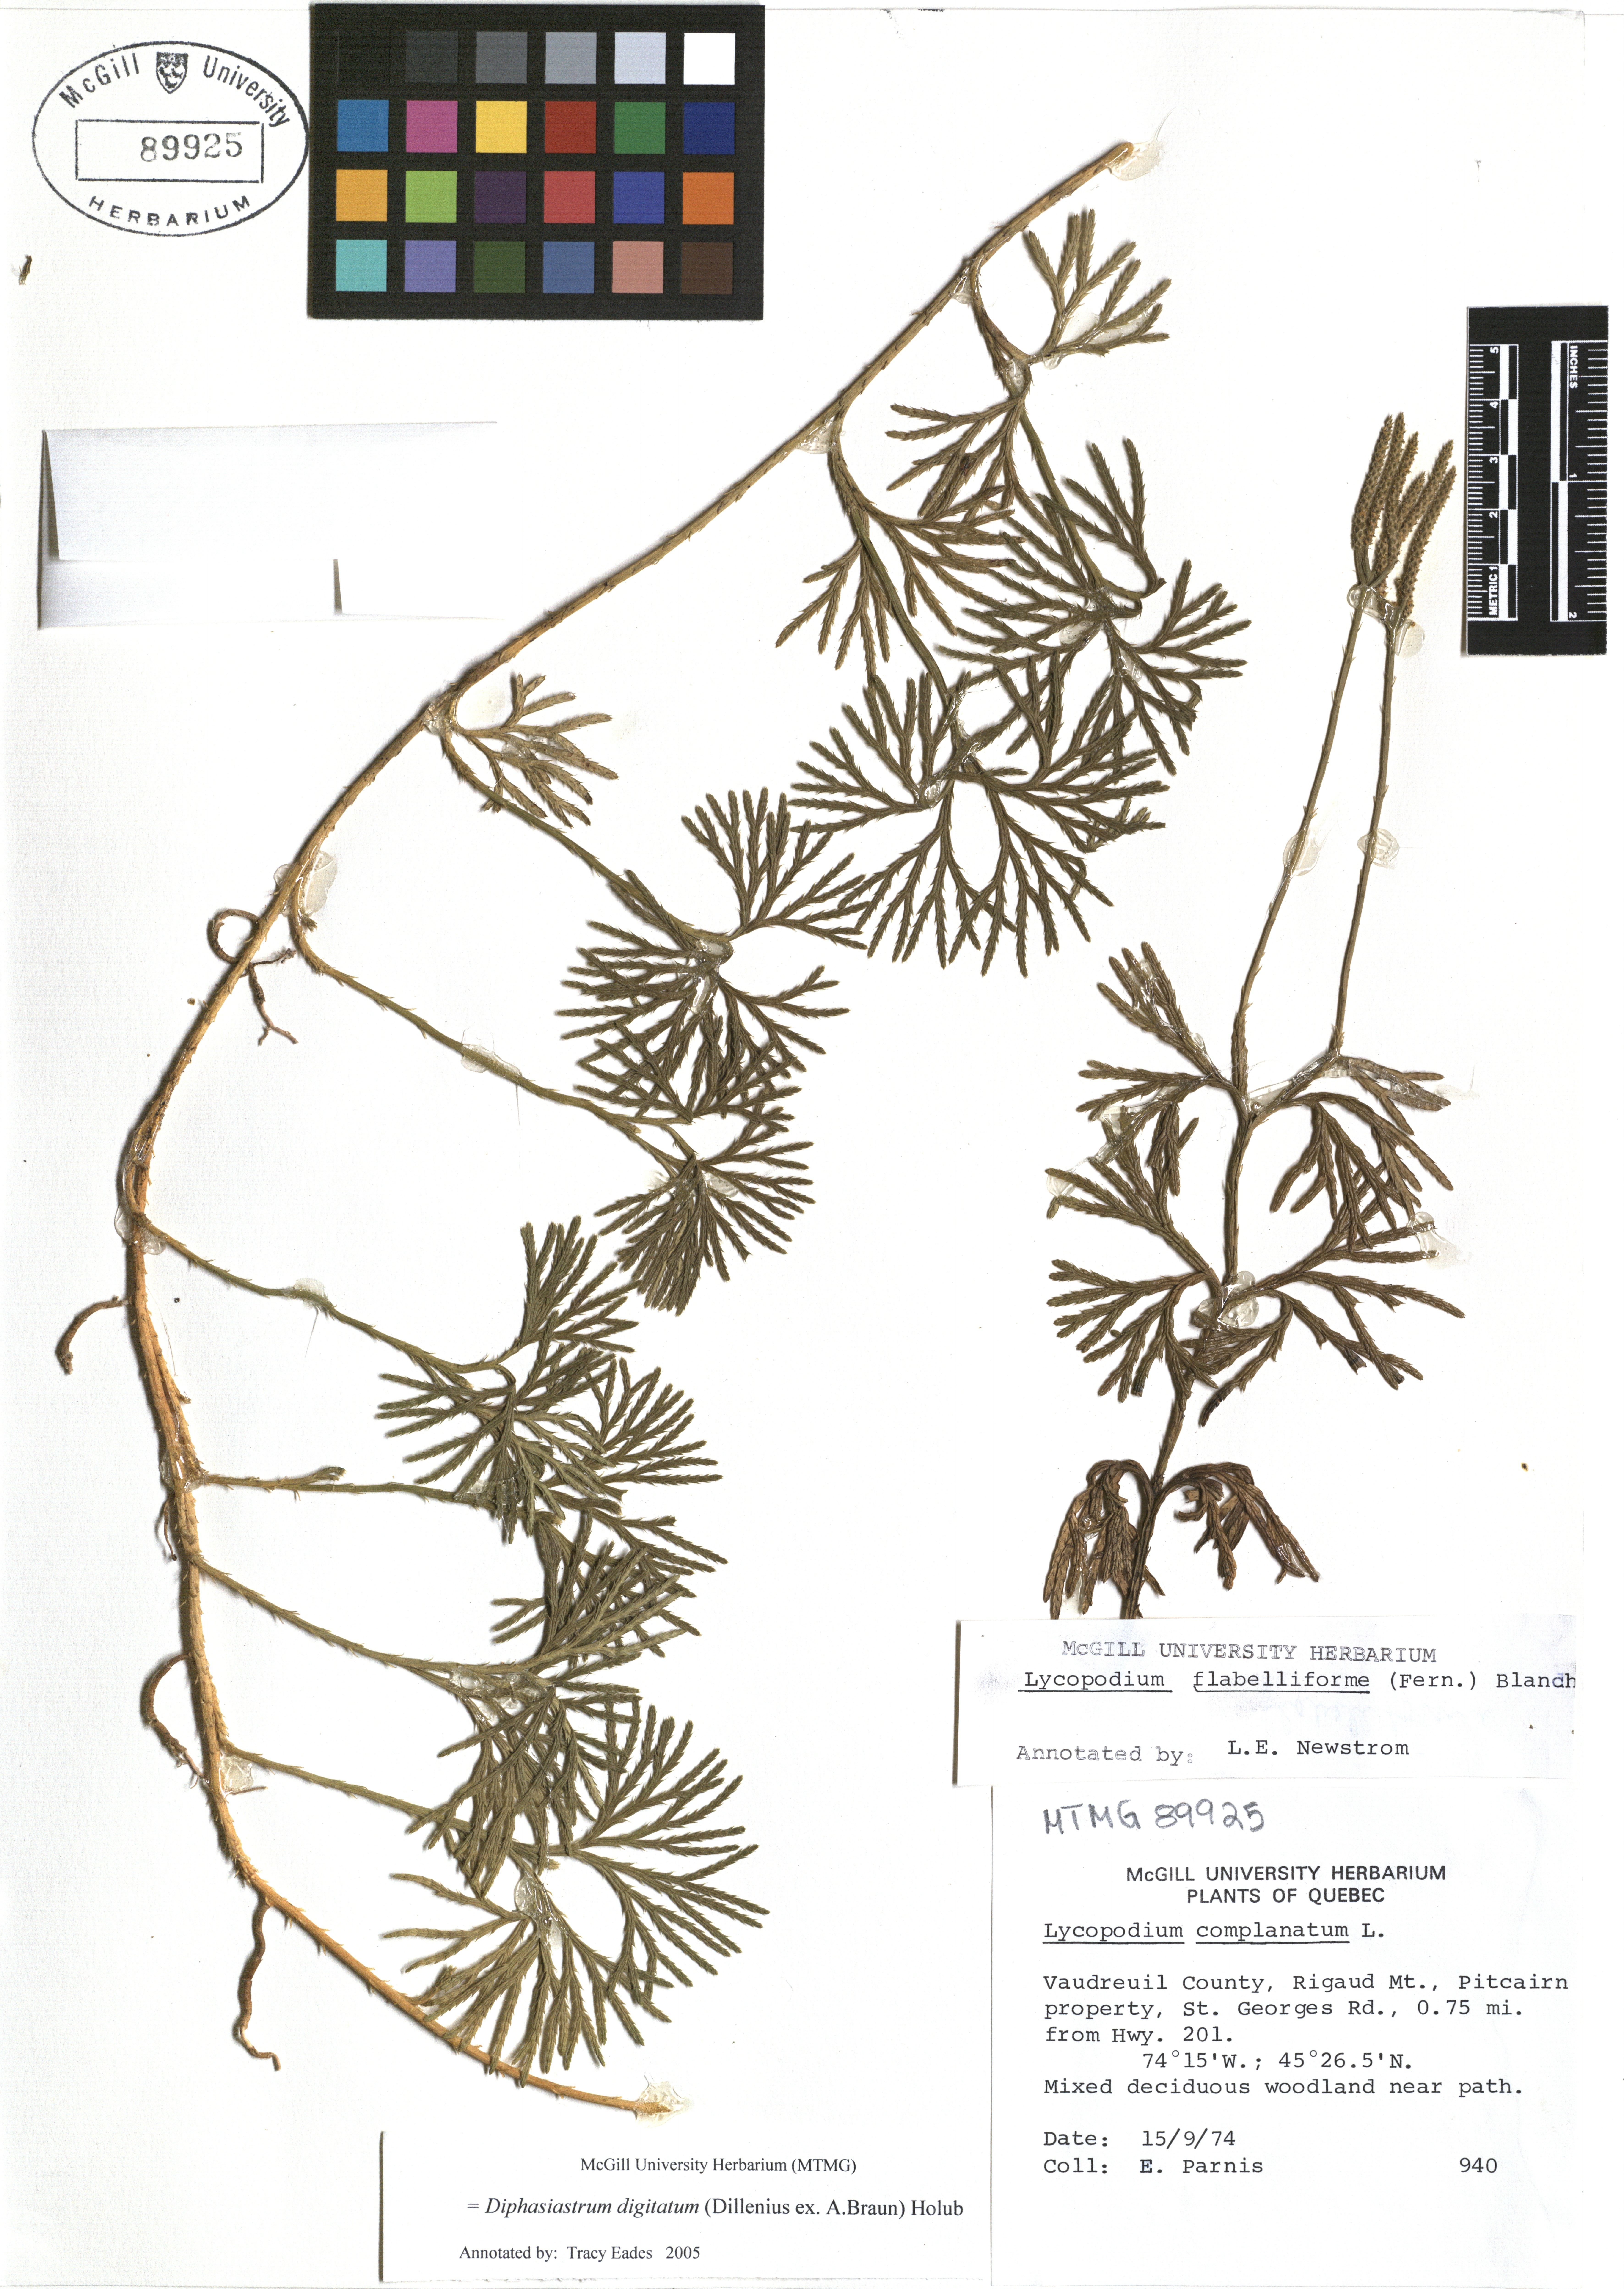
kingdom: Plantae
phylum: Tracheophyta
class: Lycopodiopsida
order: Lycopodiales
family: Lycopodiaceae
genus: Diphasiastrum
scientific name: Diphasiastrum digitatum
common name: Southern running-pine
